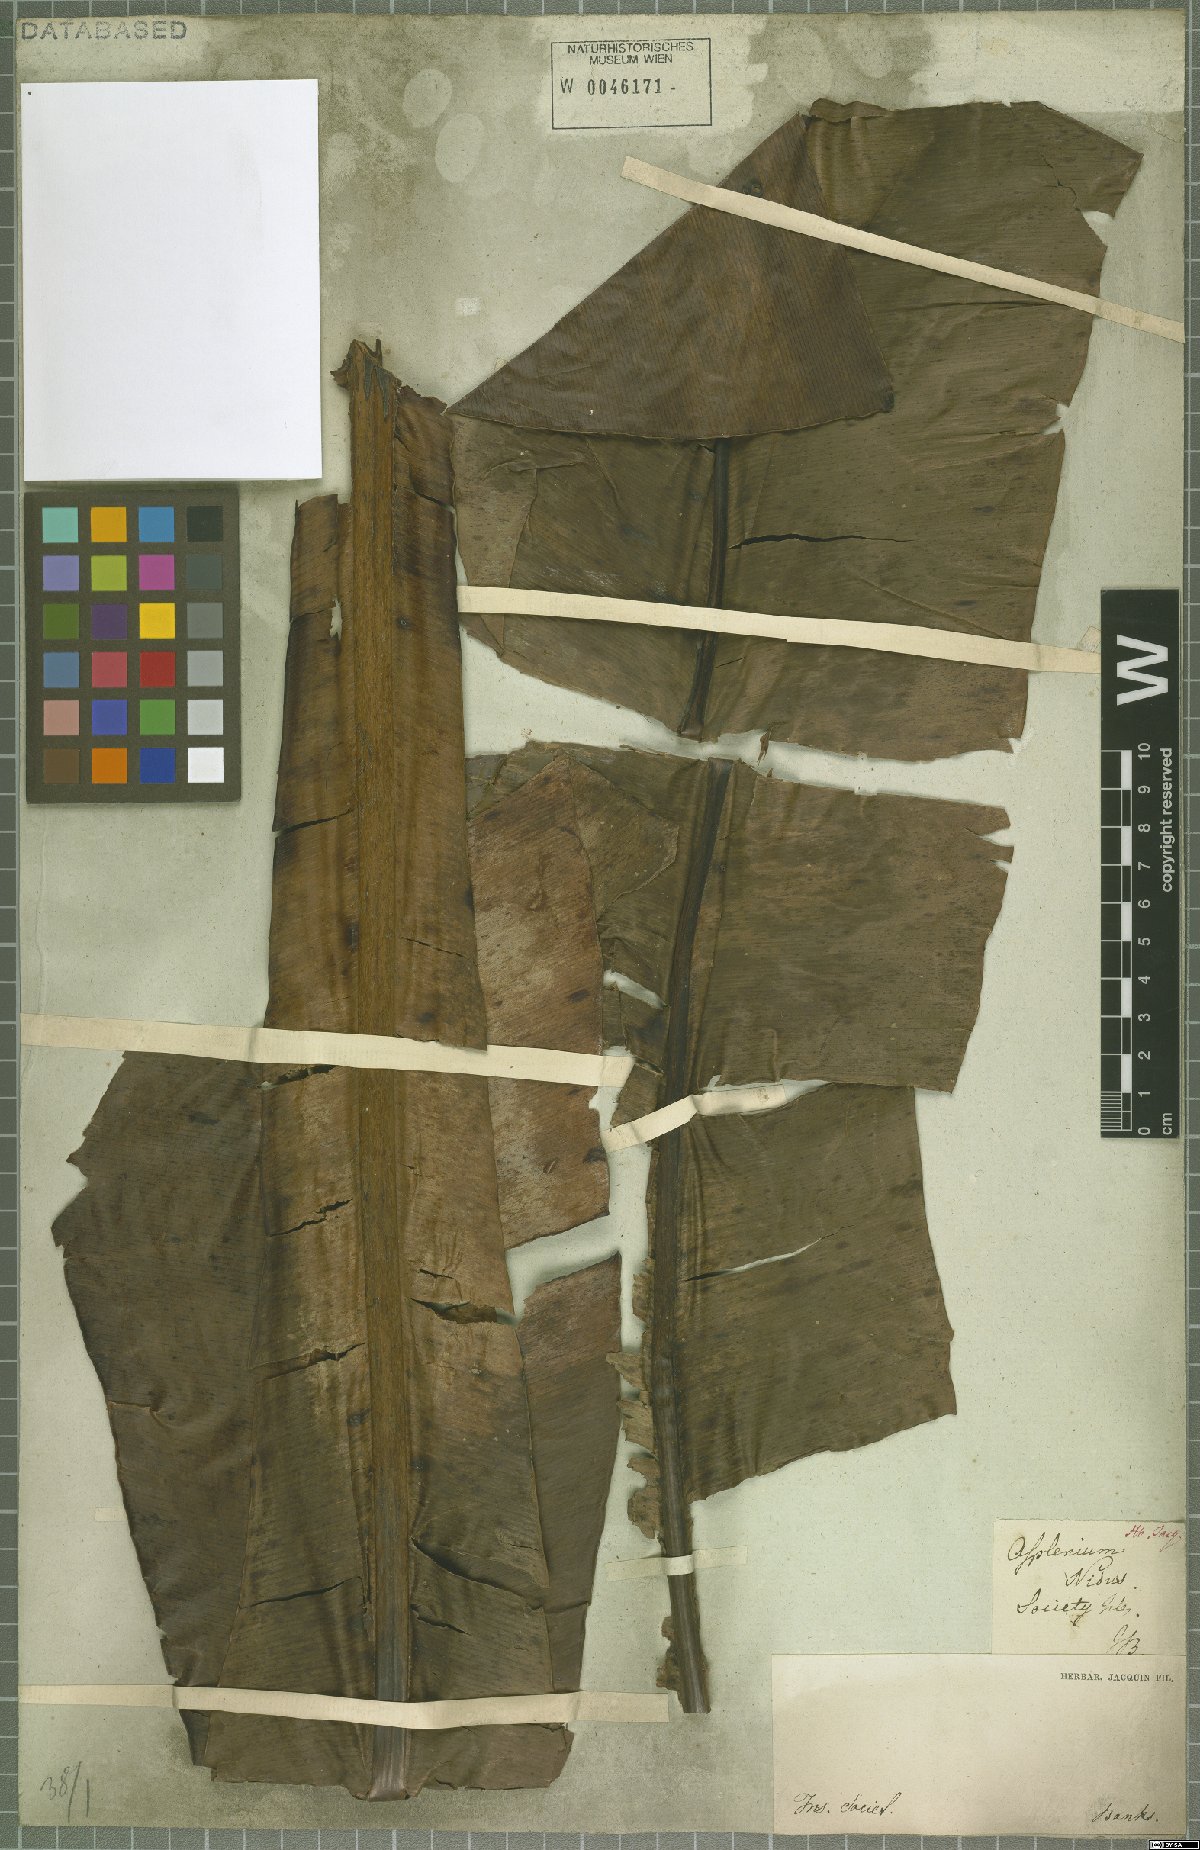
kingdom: Plantae
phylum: Tracheophyta
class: Polypodiopsida
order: Polypodiales
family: Aspleniaceae
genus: Asplenium
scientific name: Asplenium nidus
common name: Bird's-nest fern
